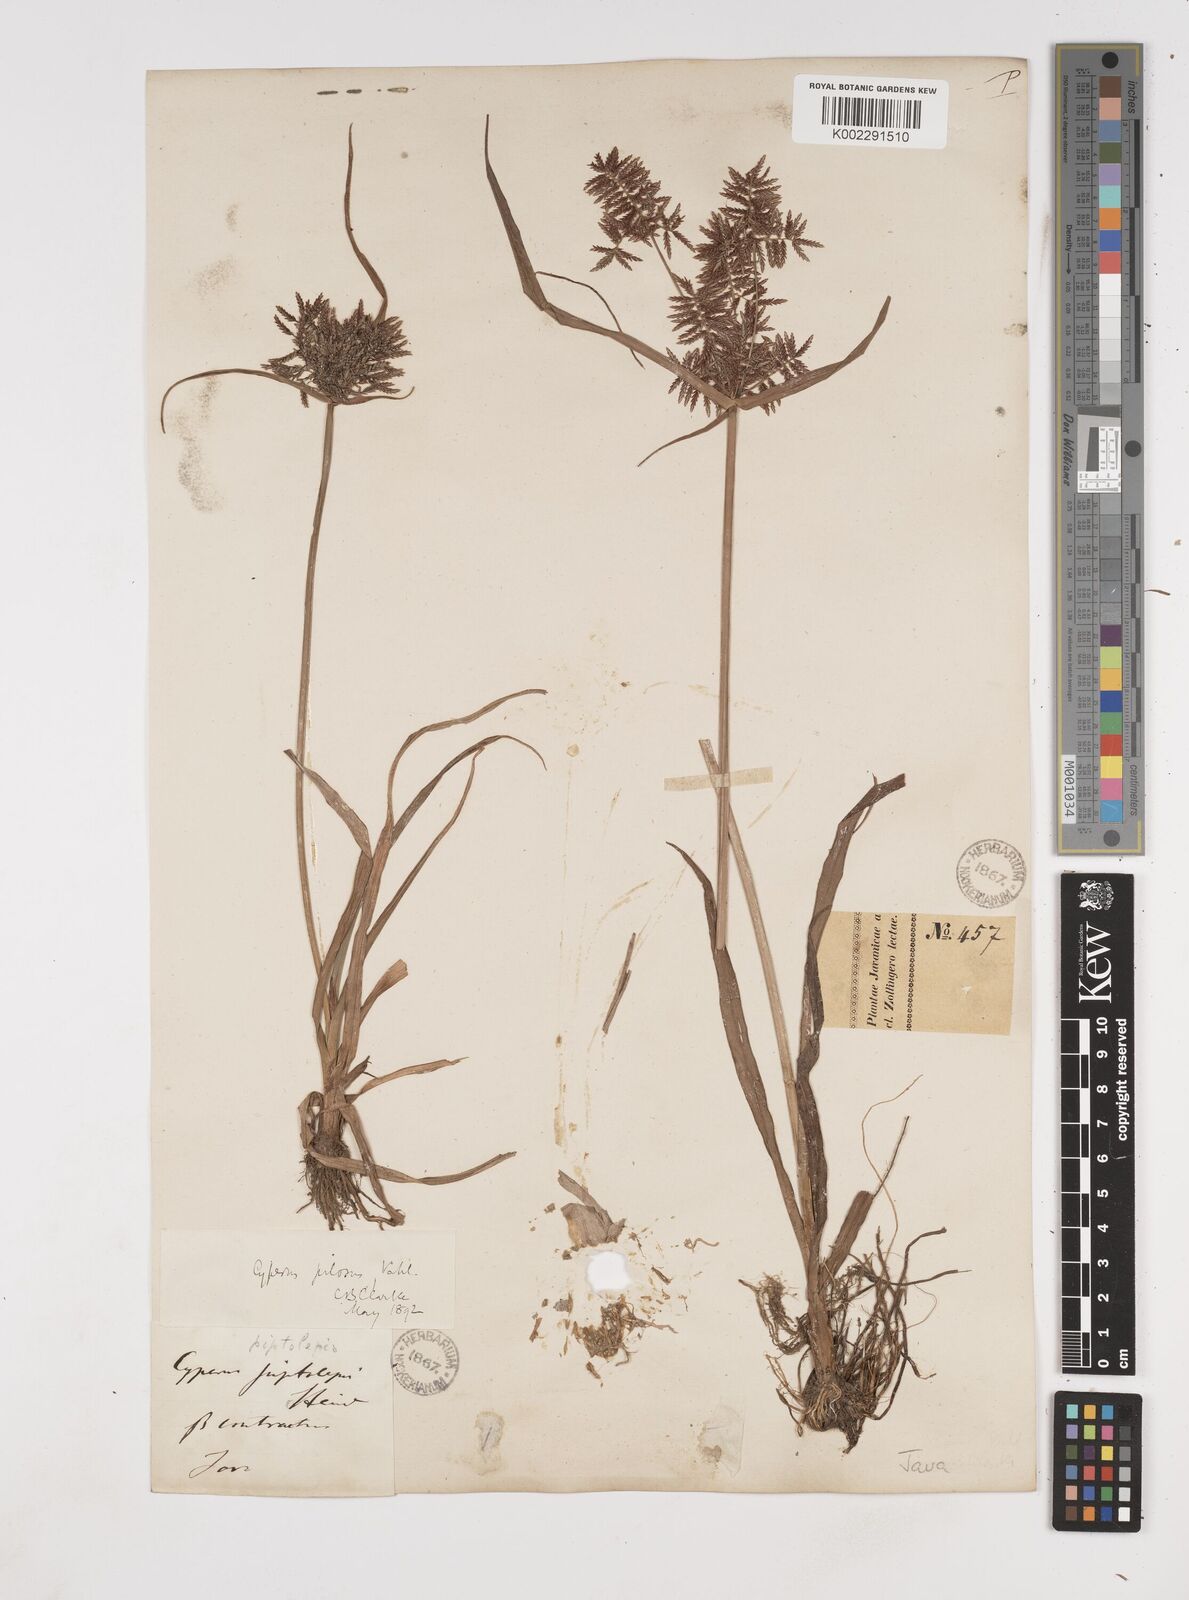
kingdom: Plantae
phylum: Tracheophyta
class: Liliopsida
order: Poales
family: Cyperaceae
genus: Cyperus
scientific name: Cyperus pilosus
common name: Fuzzy flatsedge
